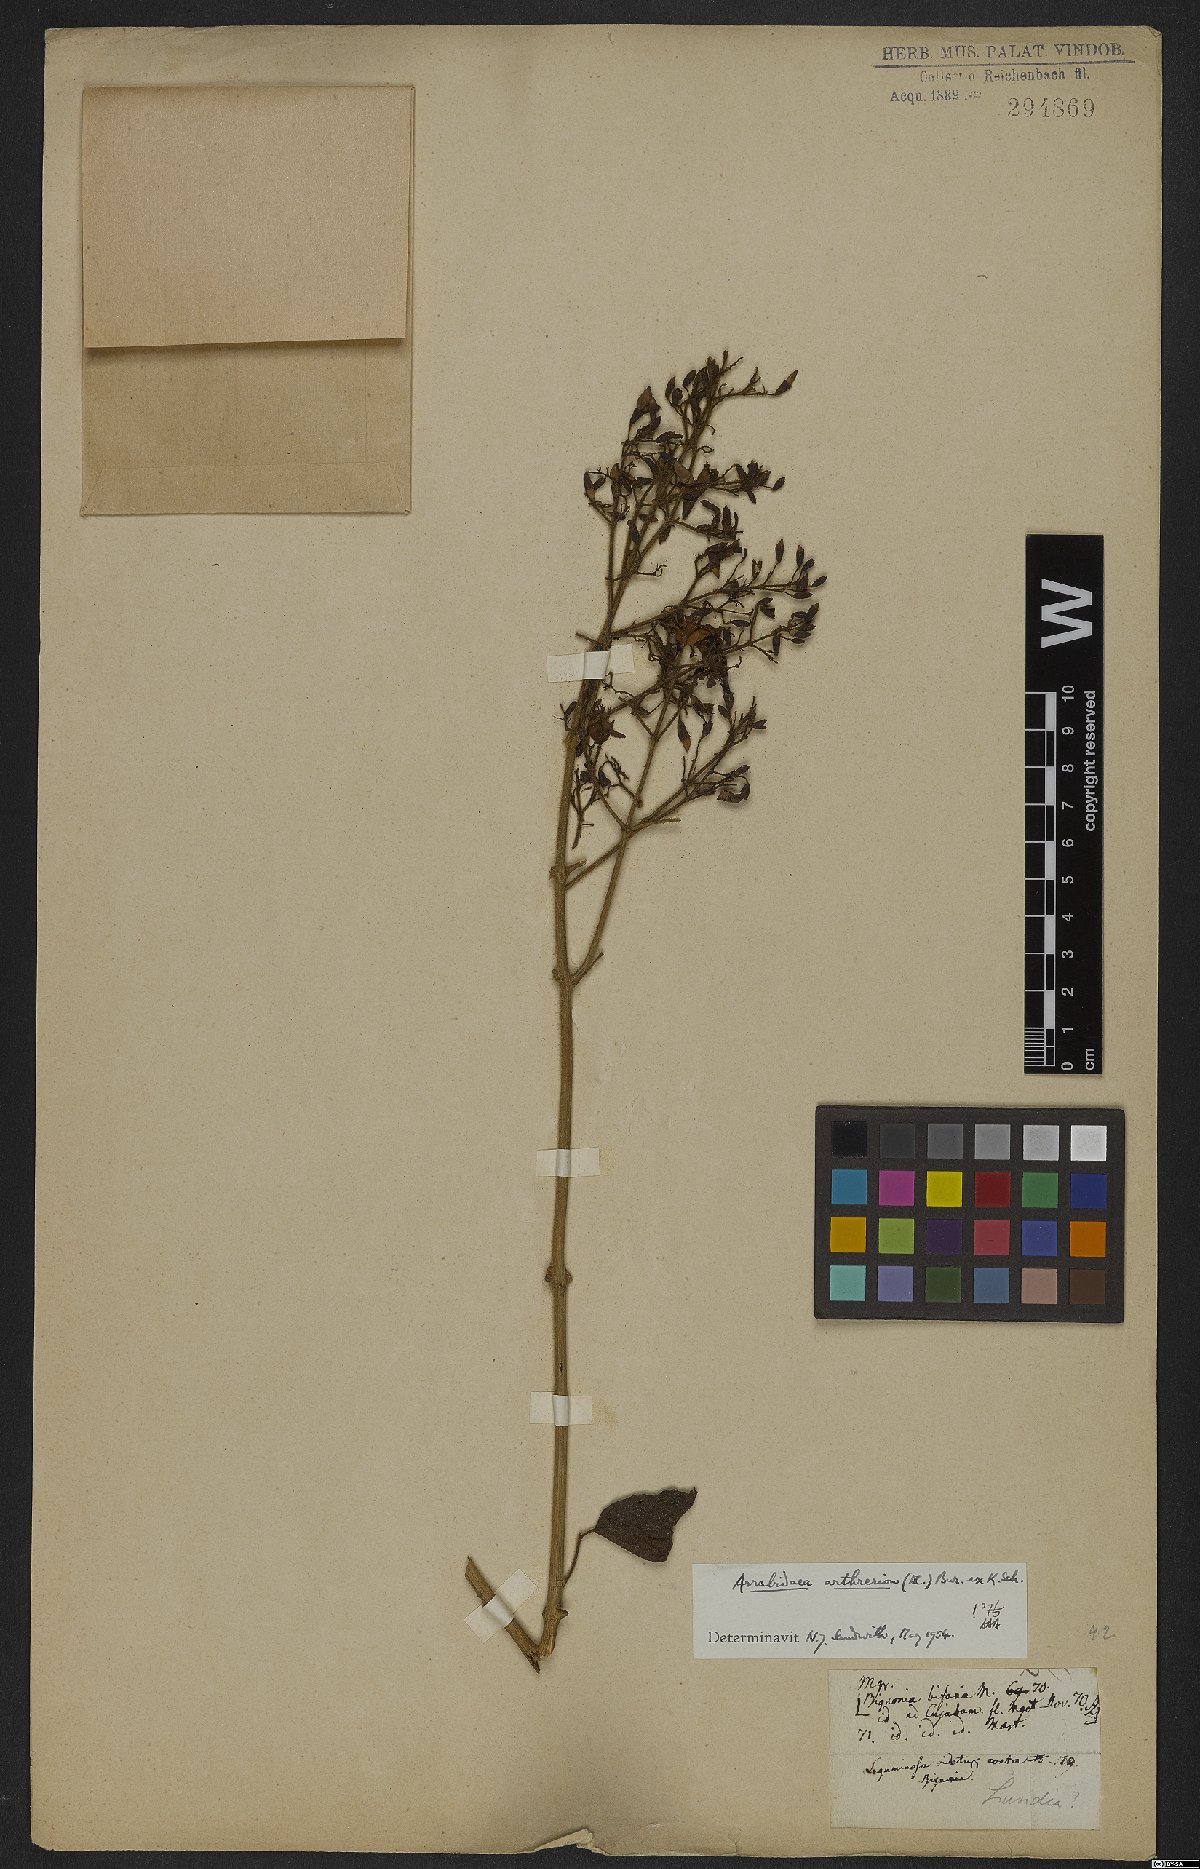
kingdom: Plantae
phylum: Tracheophyta
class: Magnoliopsida
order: Lamiales
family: Bignoniaceae
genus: Fridericia
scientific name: Fridericia arthrerion
